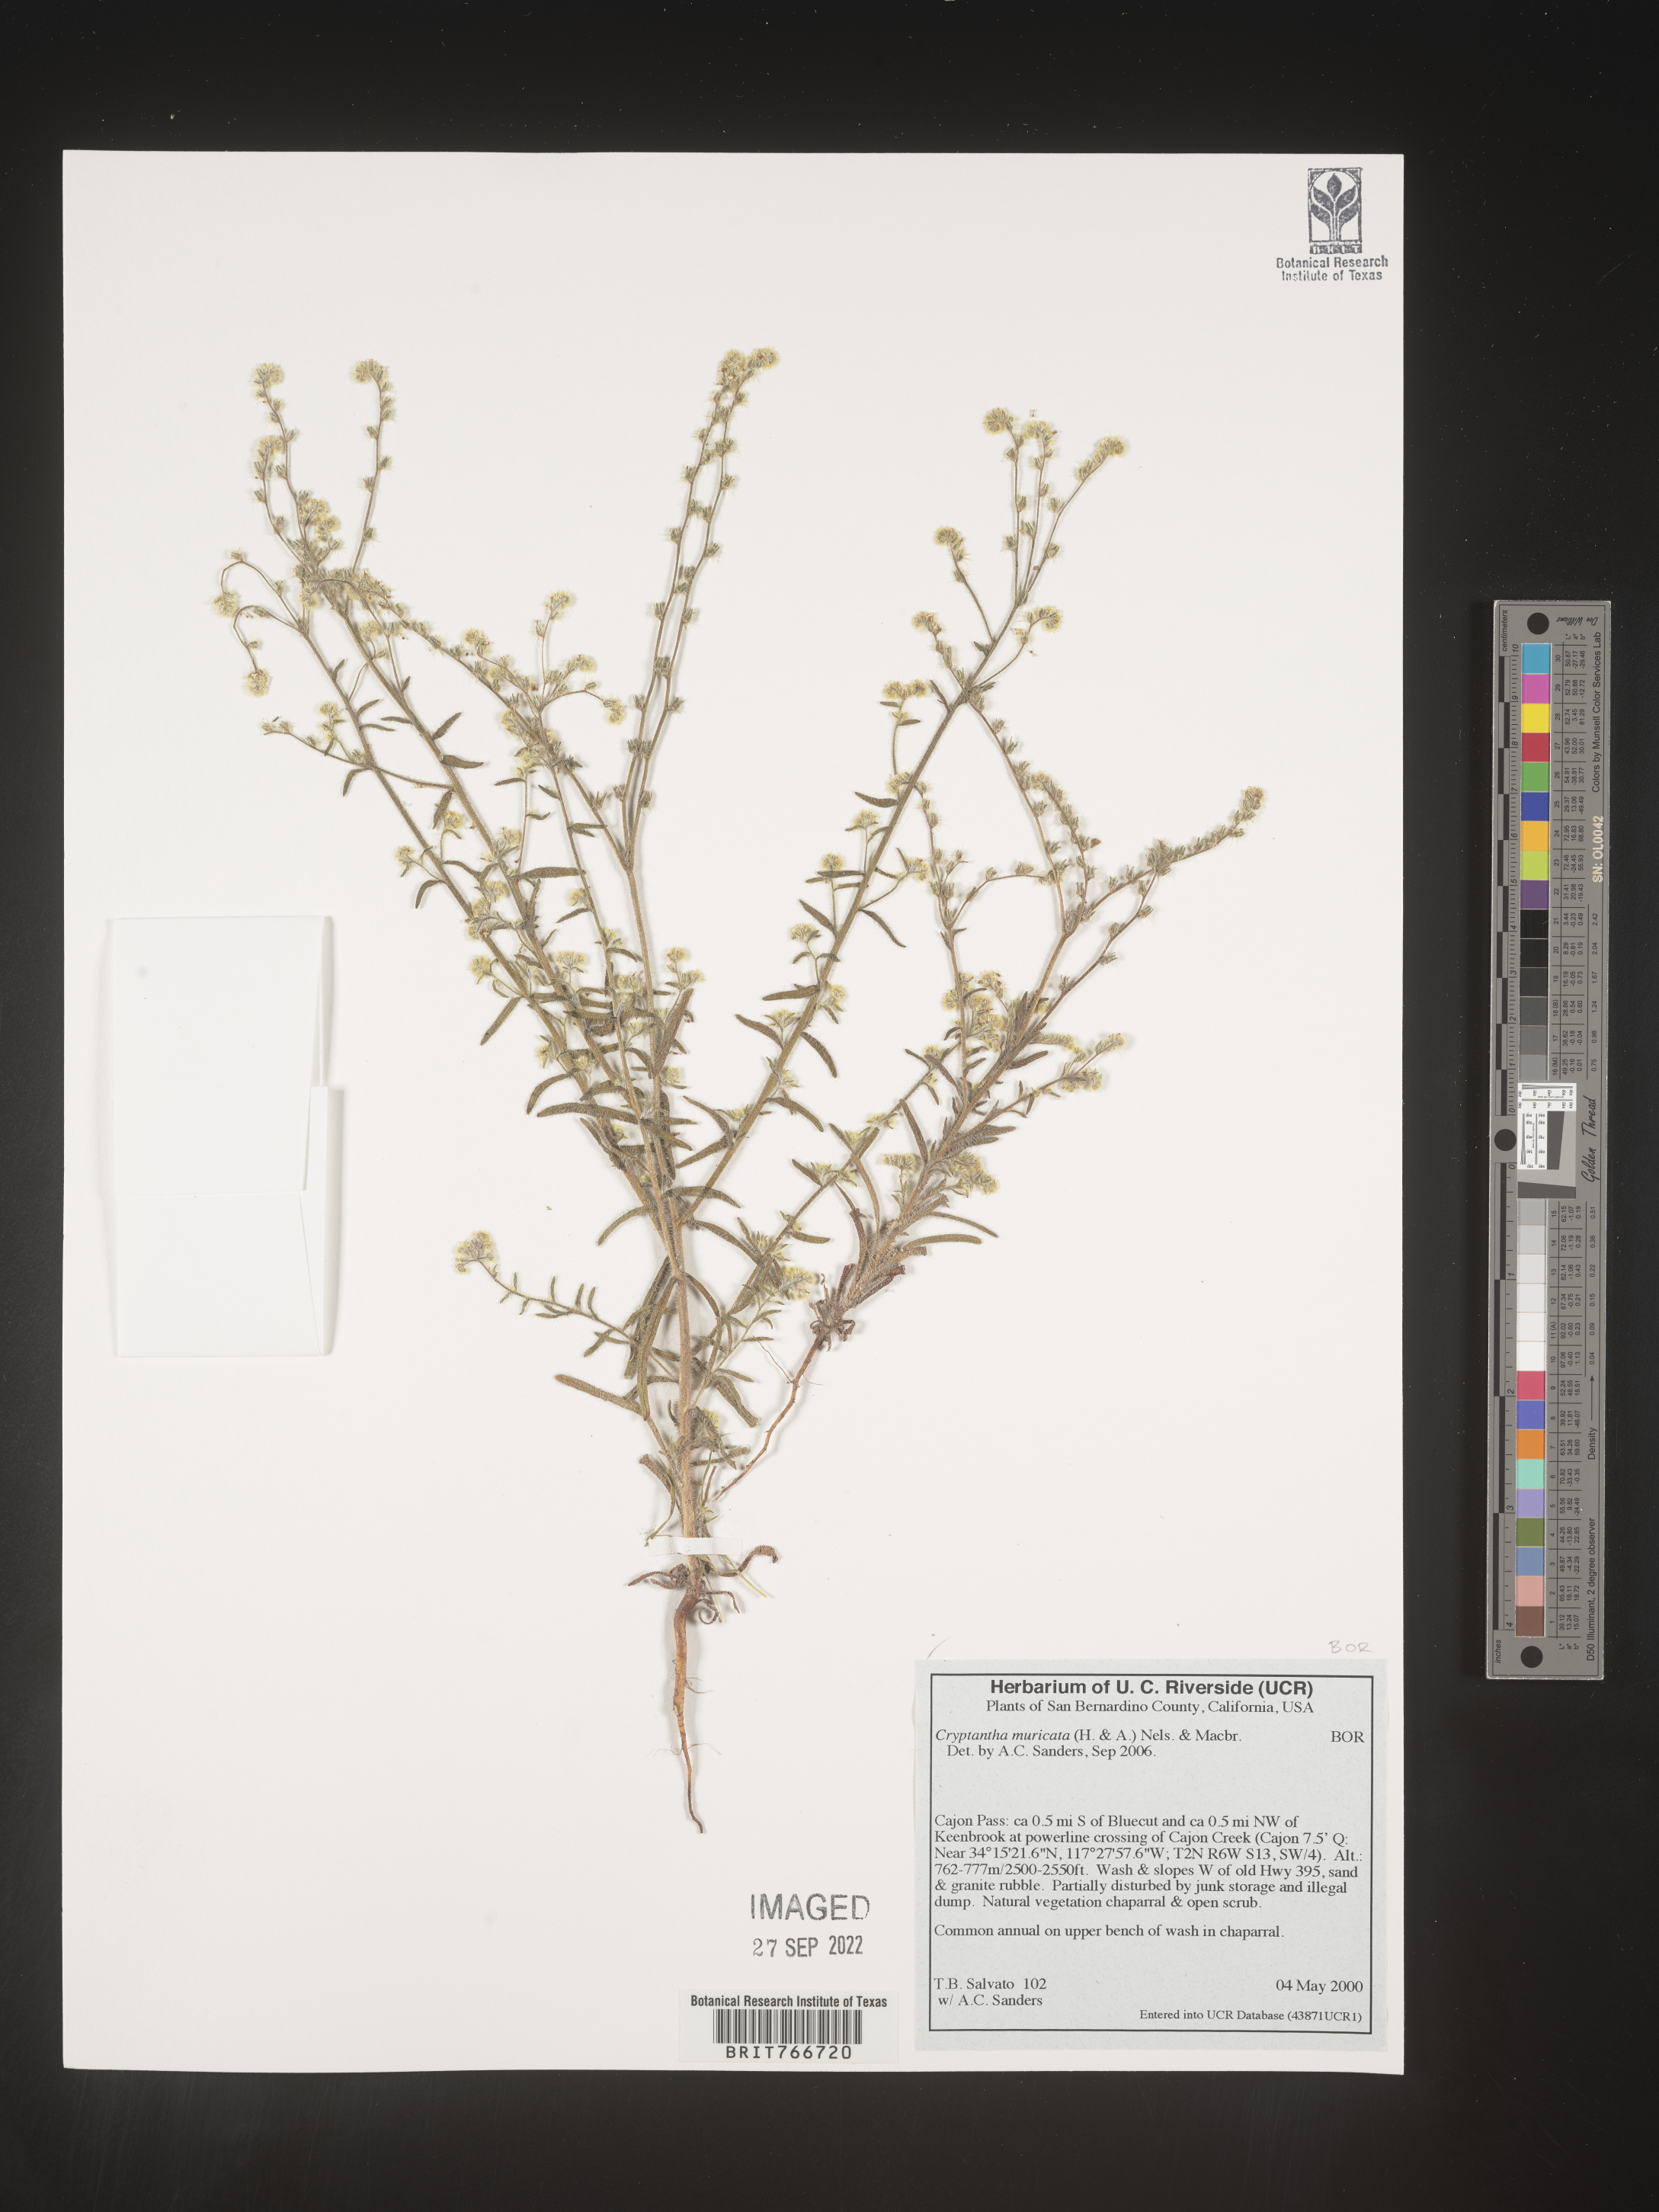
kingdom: Plantae
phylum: Tracheophyta
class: Magnoliopsida
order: Boraginales
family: Boraginaceae
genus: Cryptantha
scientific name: Cryptantha muricata
